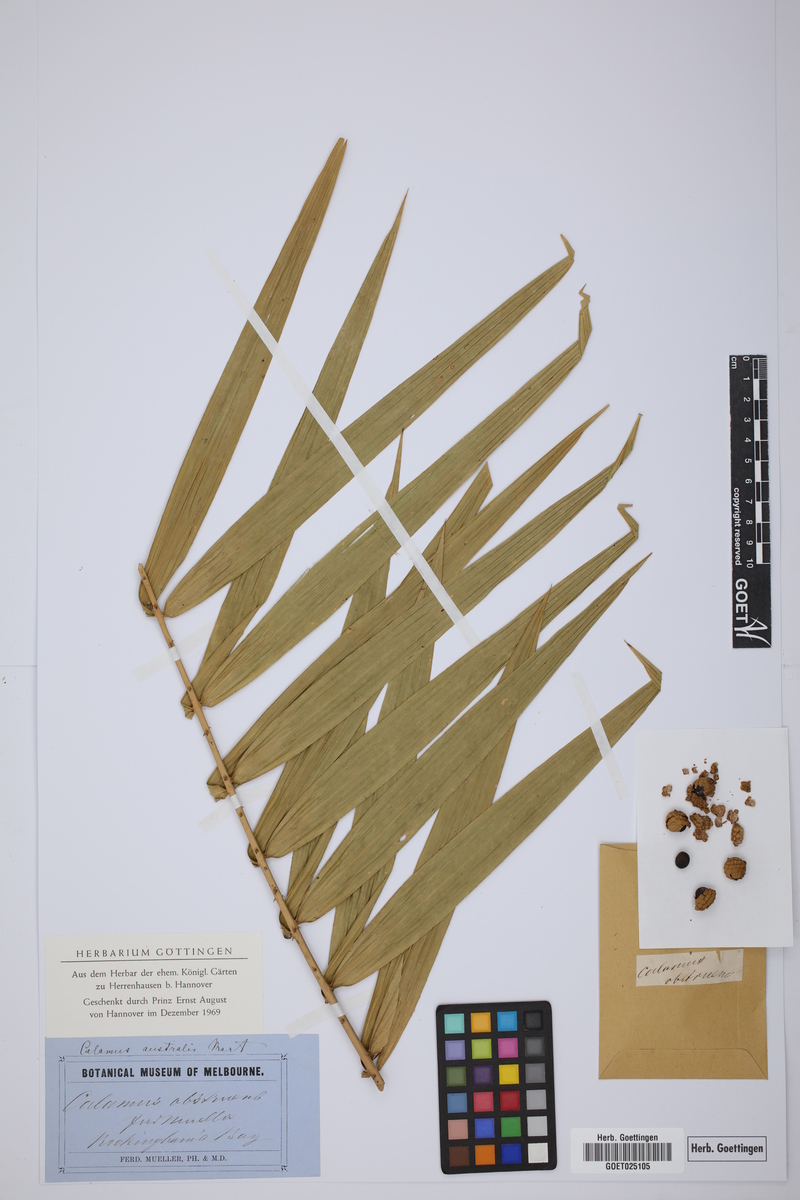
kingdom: Plantae
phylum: Tracheophyta
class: Liliopsida
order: Arecales
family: Arecaceae
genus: Calamus
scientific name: Calamus australis
